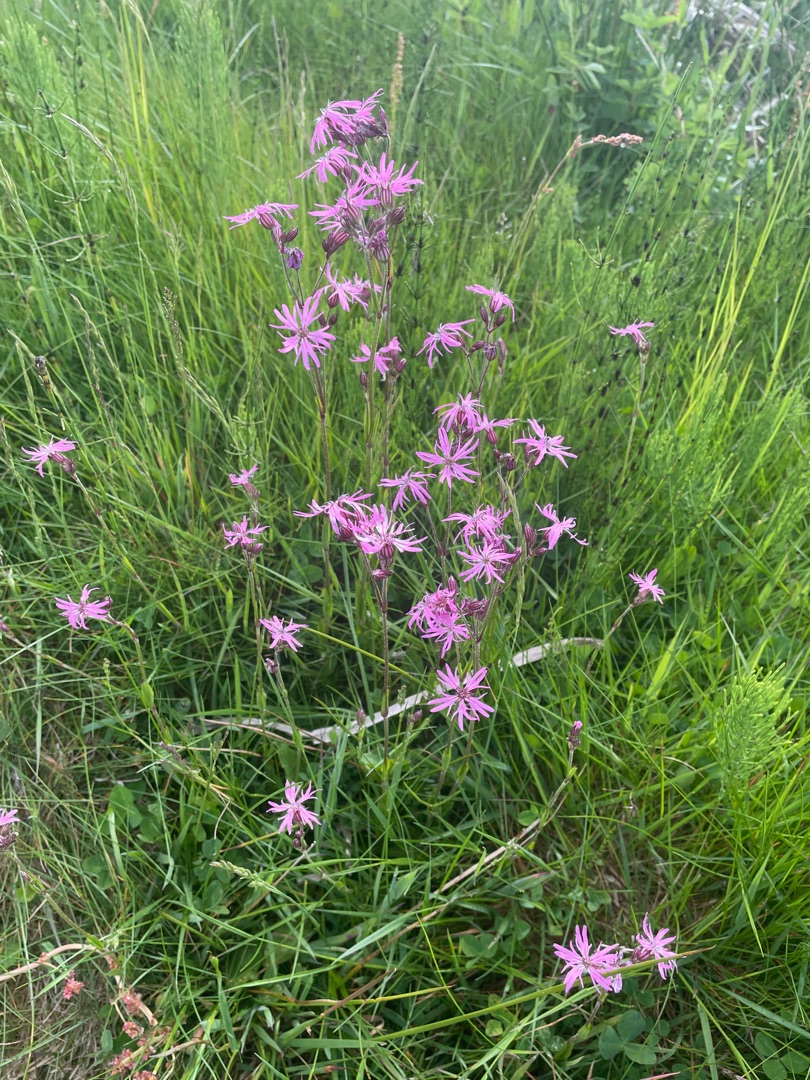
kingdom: Plantae
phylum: Tracheophyta
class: Magnoliopsida
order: Caryophyllales
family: Caryophyllaceae
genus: Silene
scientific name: Silene flos-cuculi
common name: Trævlekrone
